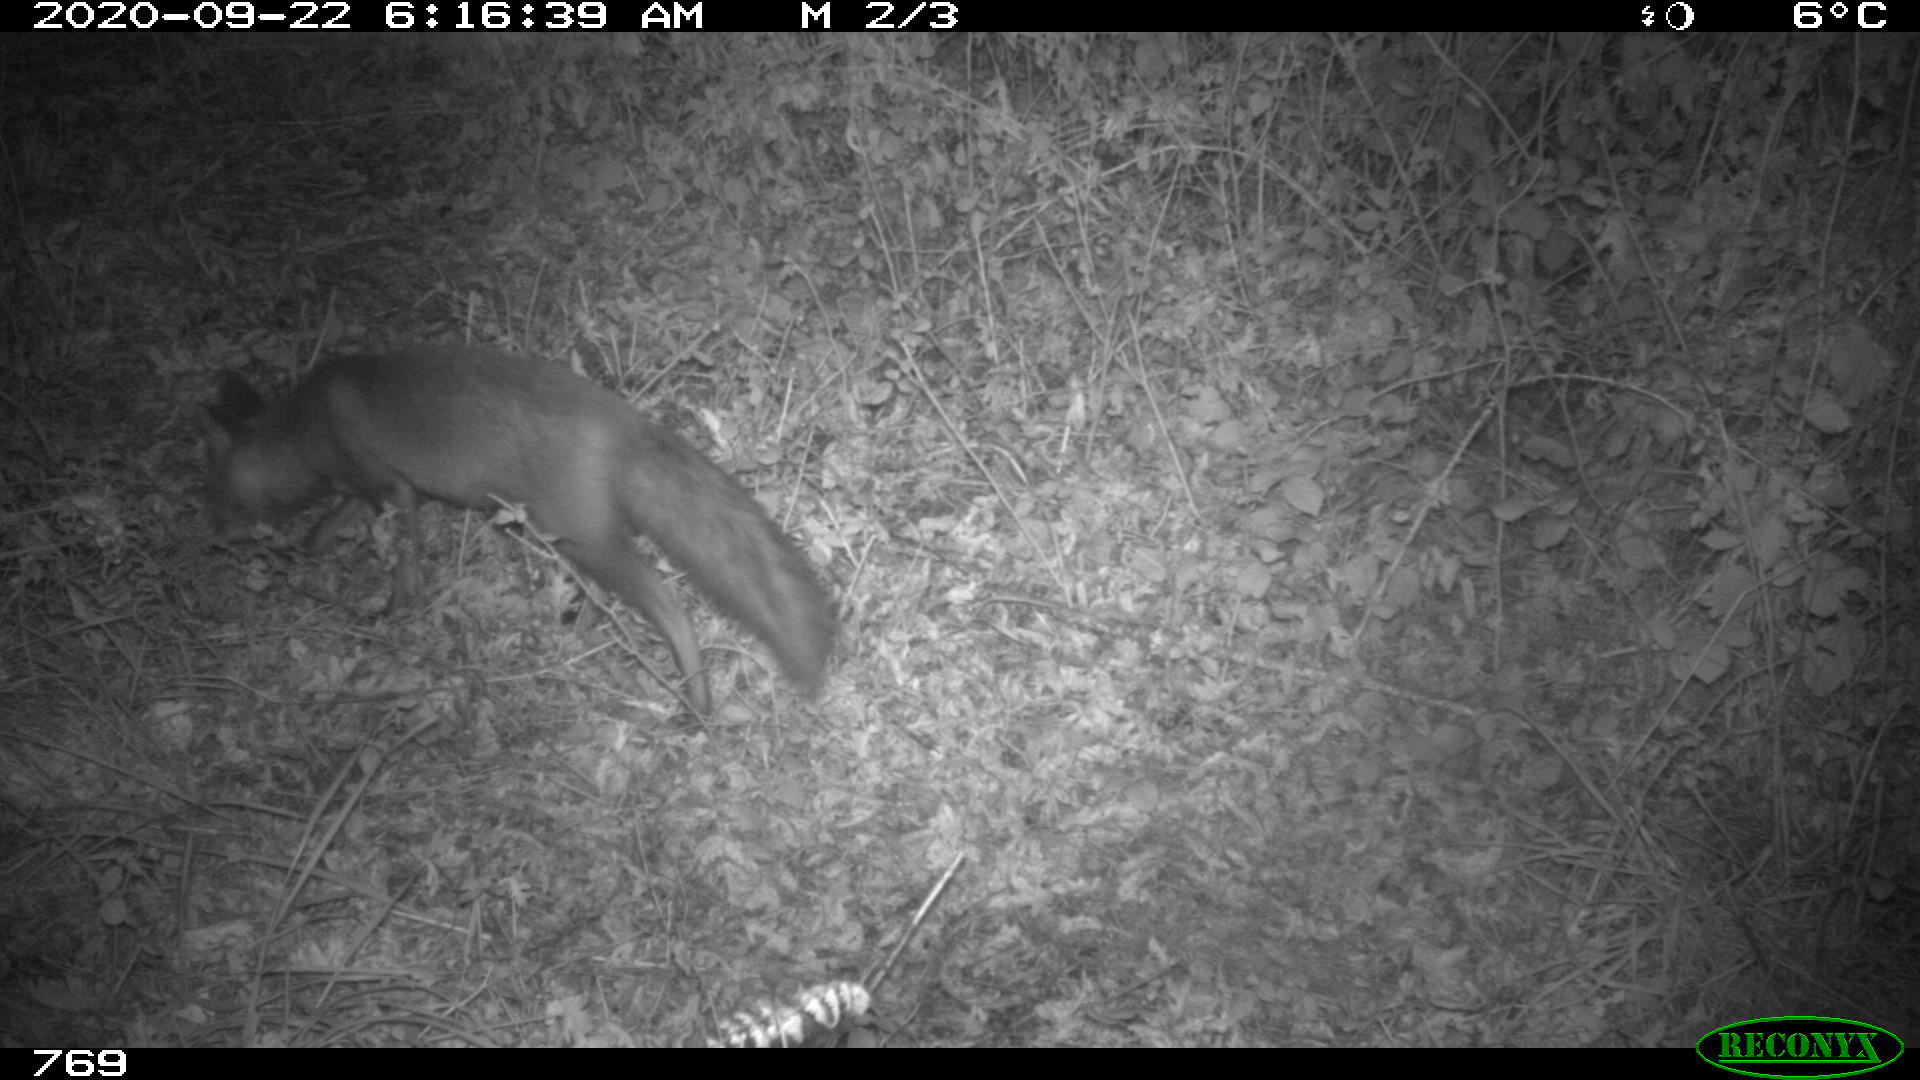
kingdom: Animalia
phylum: Chordata
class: Mammalia
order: Carnivora
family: Canidae
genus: Vulpes
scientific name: Vulpes vulpes
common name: Red fox
